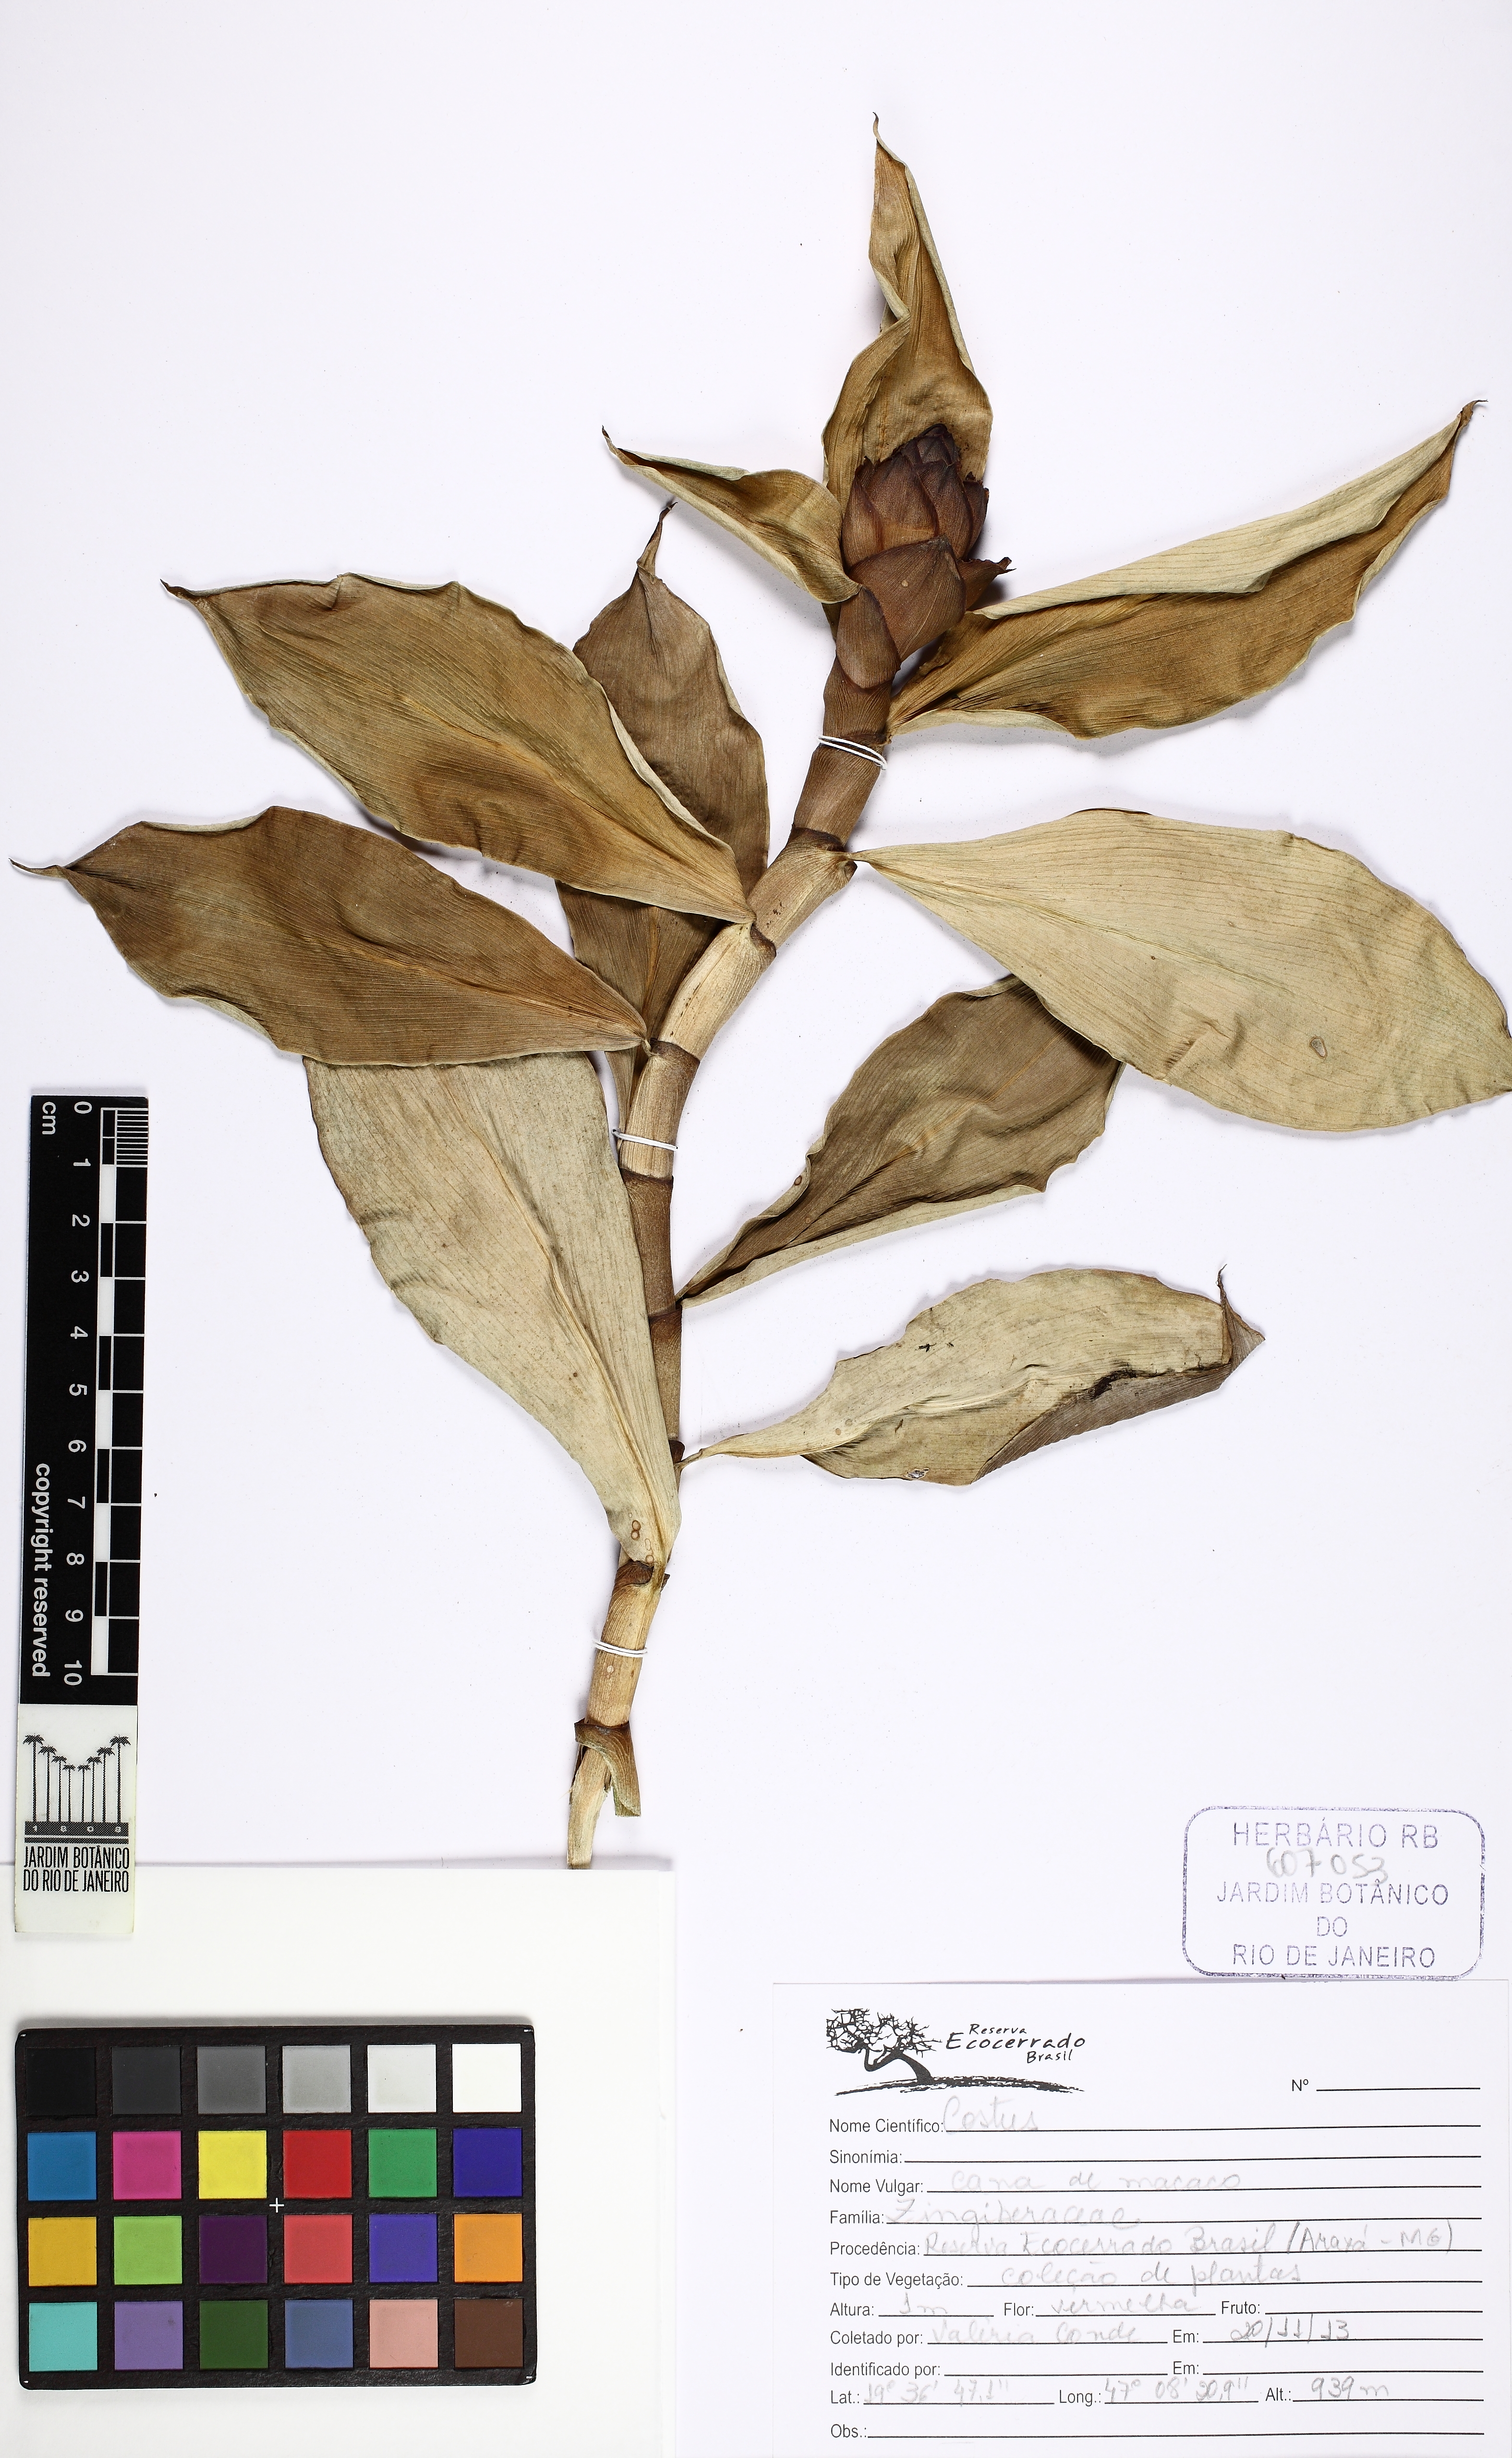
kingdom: Plantae
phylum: Tracheophyta
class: Liliopsida
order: Zingiberales
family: Costaceae
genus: Costus
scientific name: Costus spiralis
